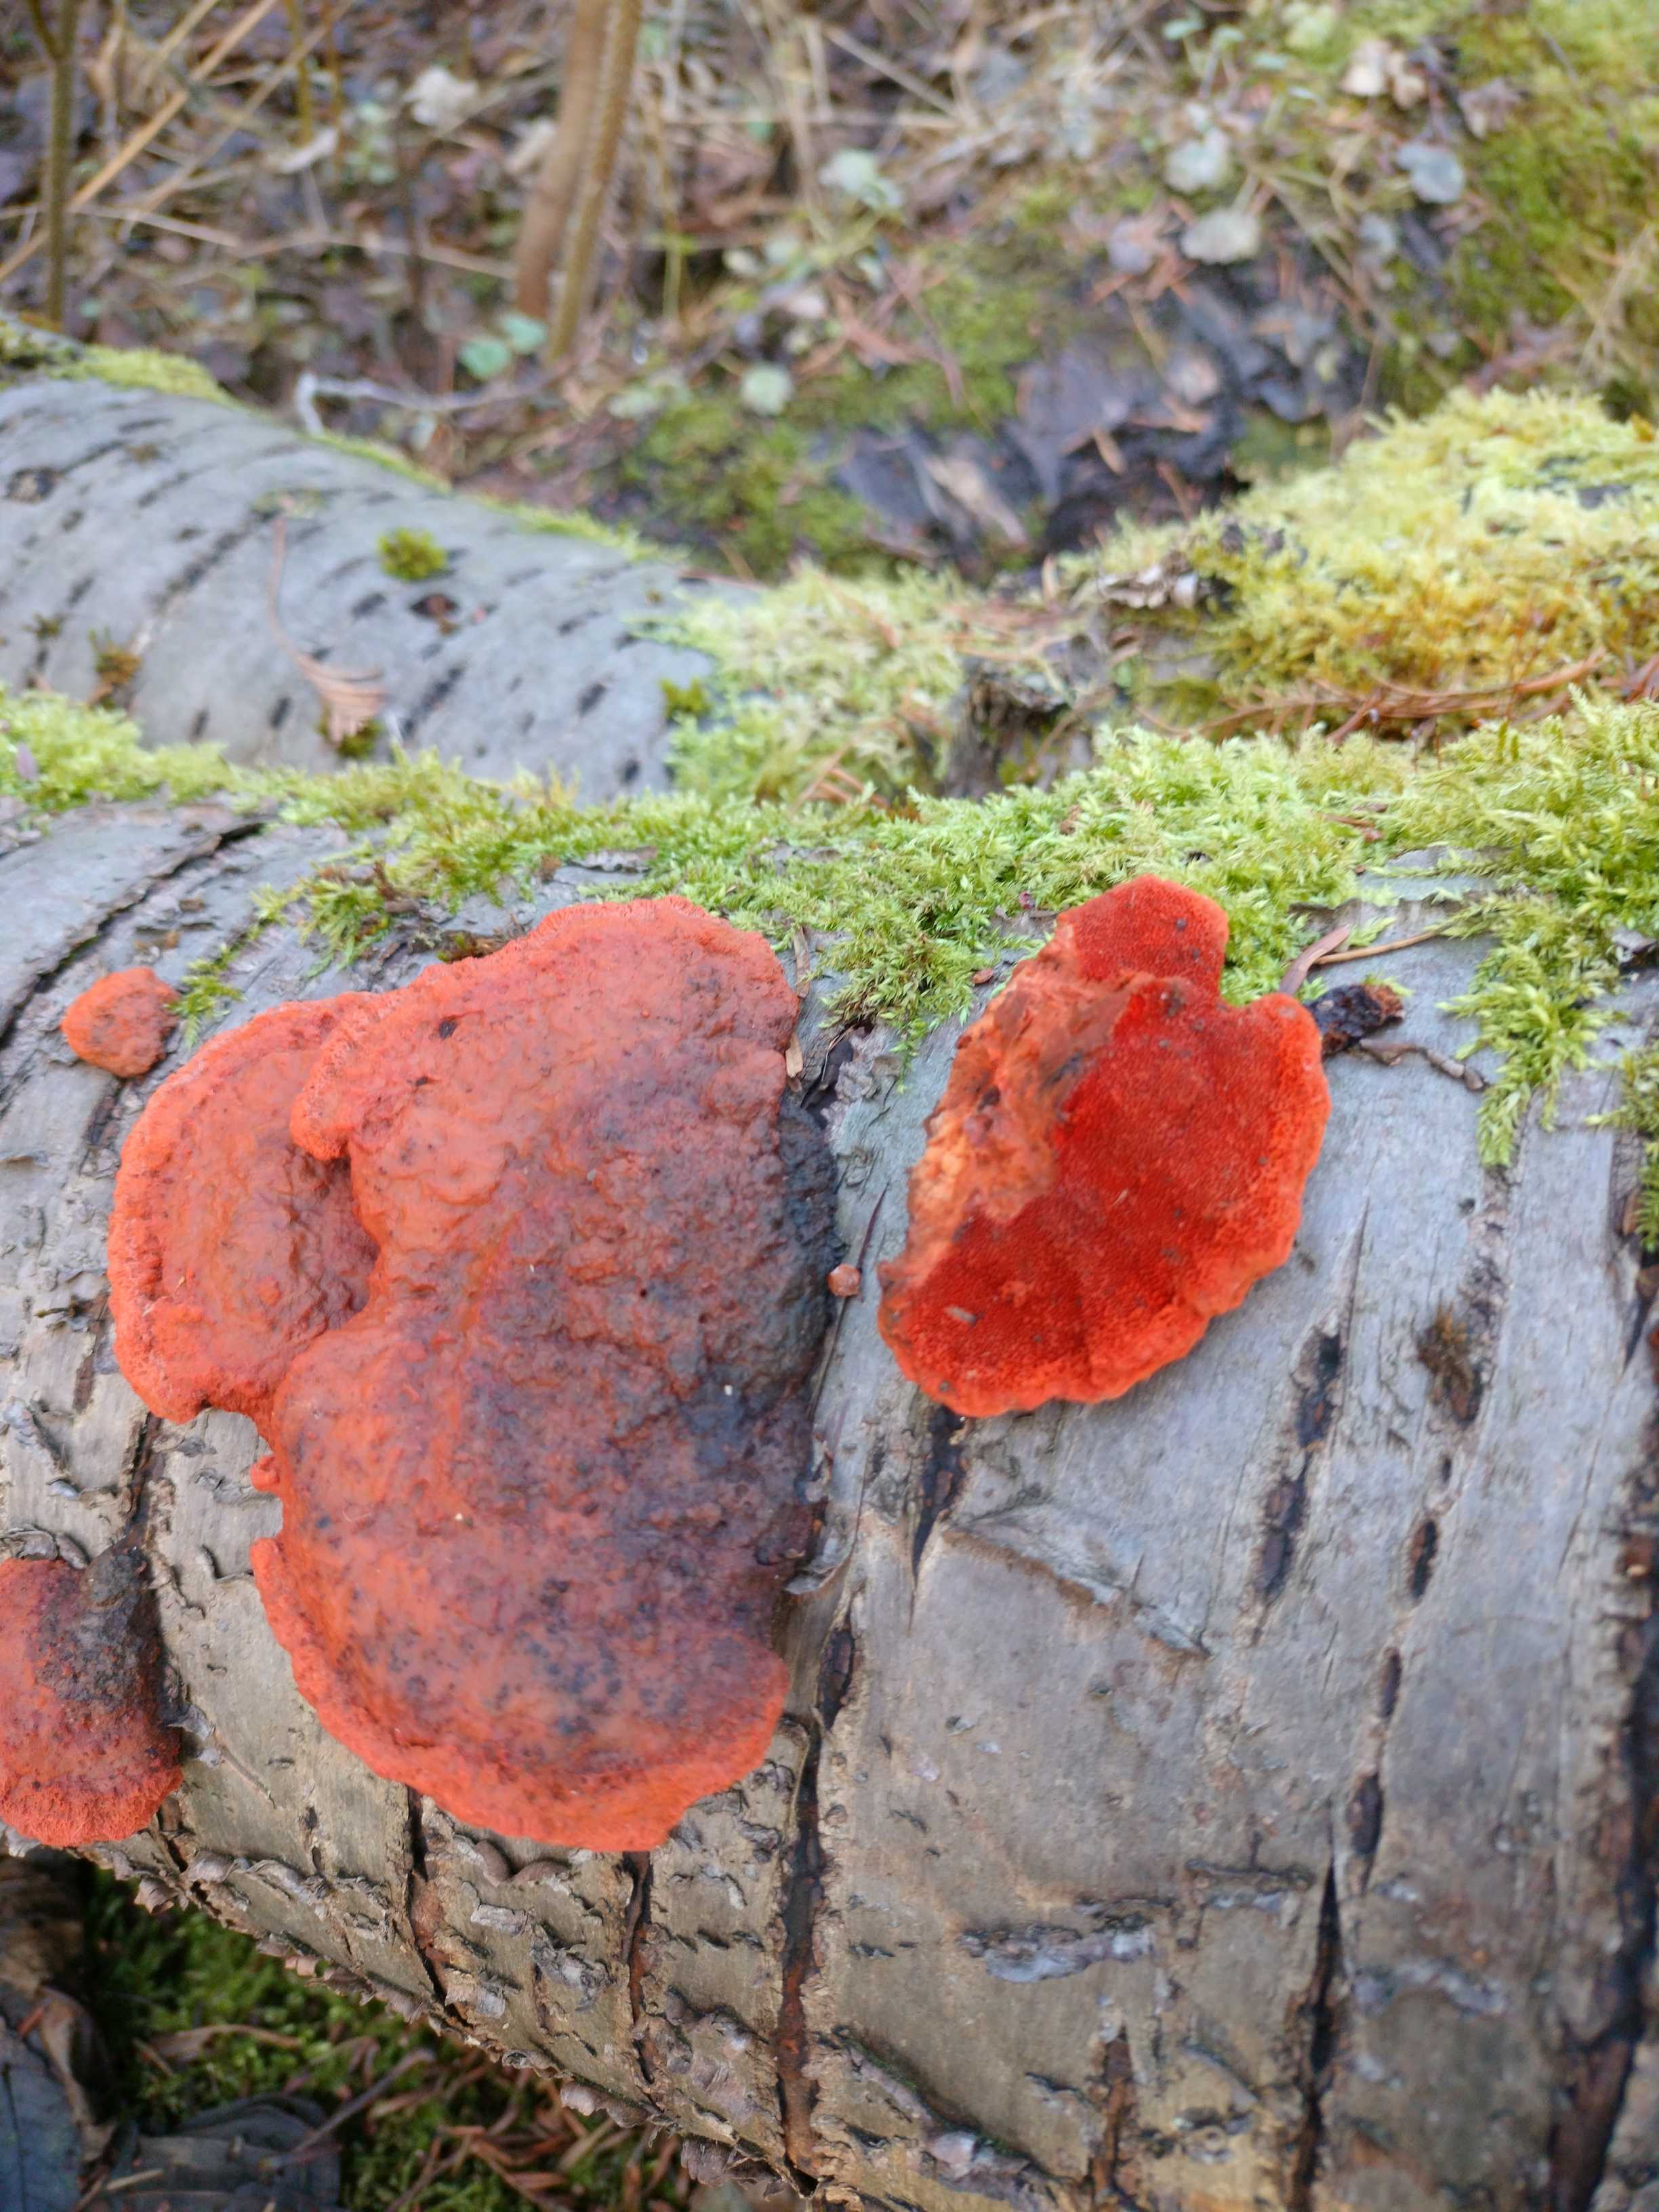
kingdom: Fungi
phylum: Basidiomycota
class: Agaricomycetes
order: Polyporales
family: Polyporaceae
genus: Trametes
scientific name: Trametes cinnabarina
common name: cinnoberporesvamp
